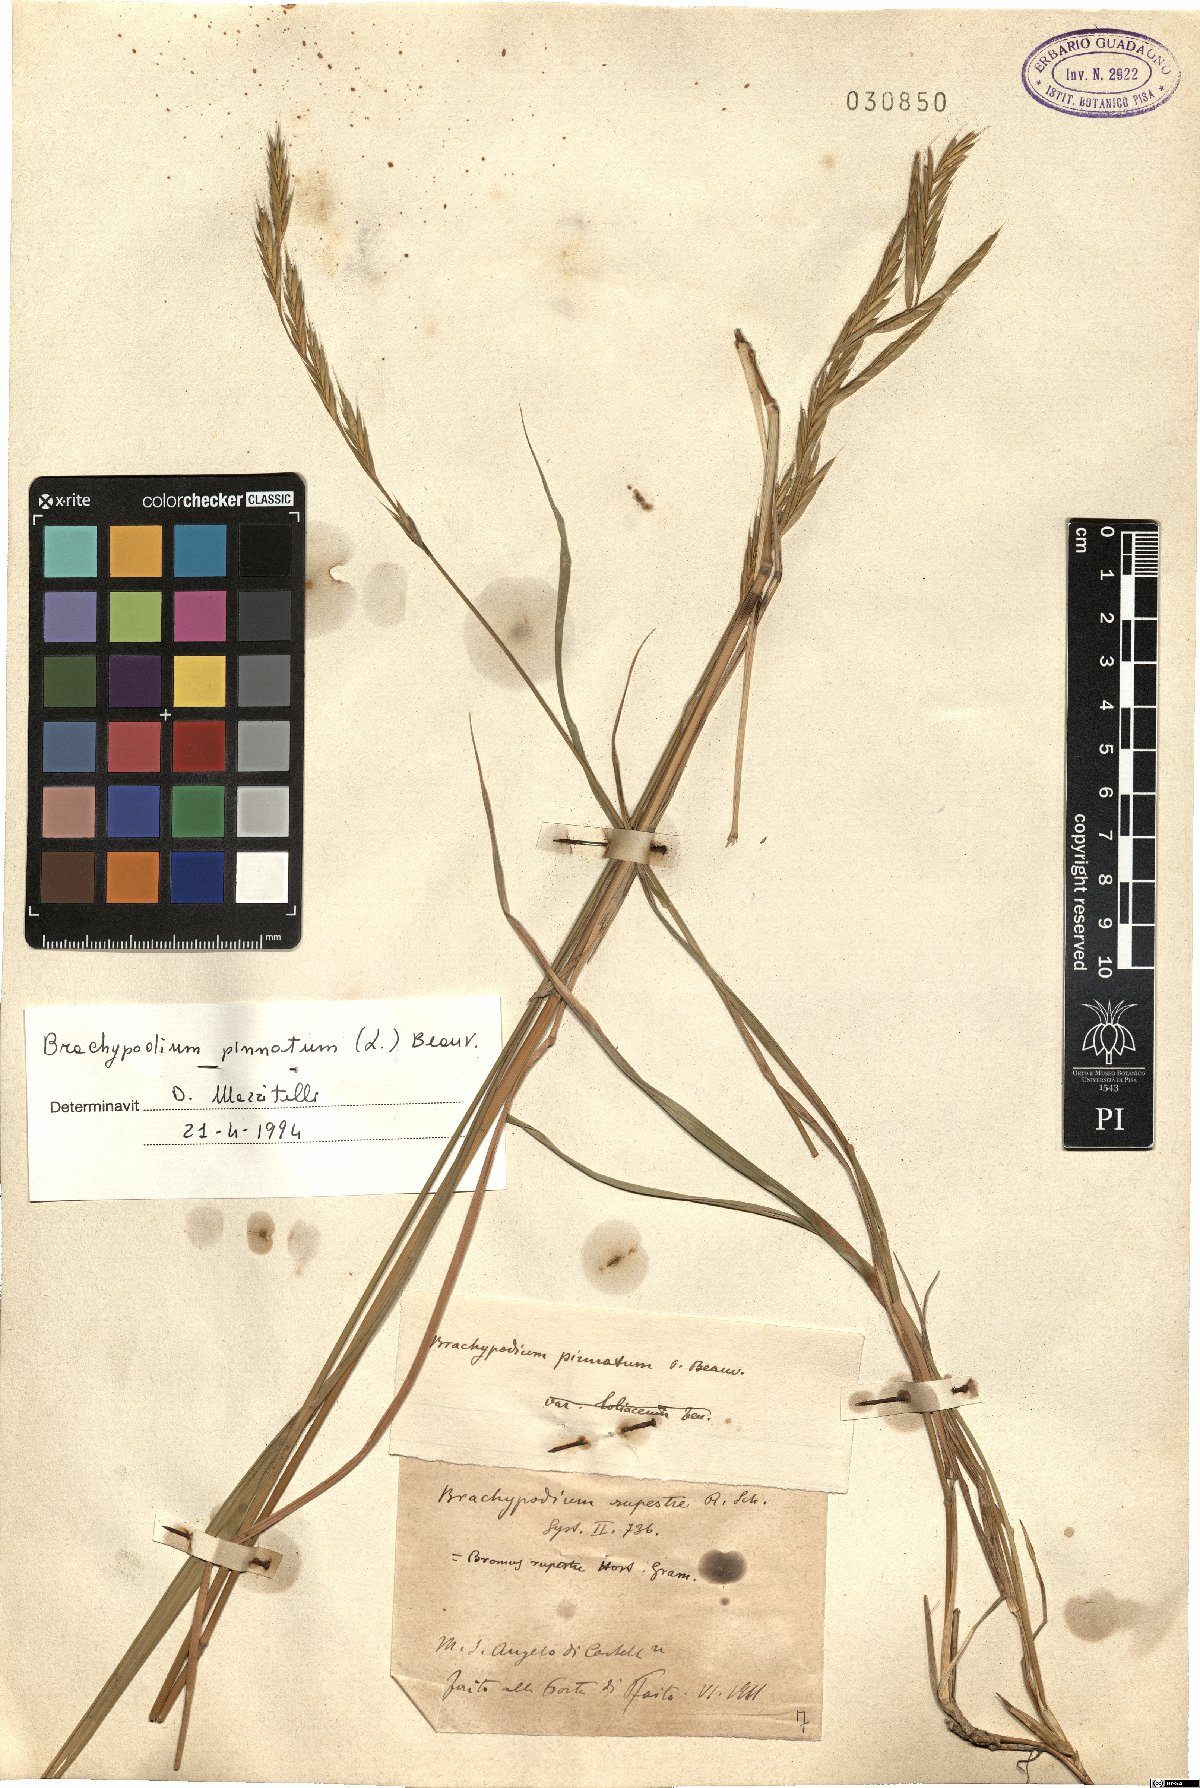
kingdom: Plantae
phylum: Tracheophyta
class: Liliopsida
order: Poales
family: Poaceae
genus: Brachypodium
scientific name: Brachypodium pinnatum
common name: Tor grass
